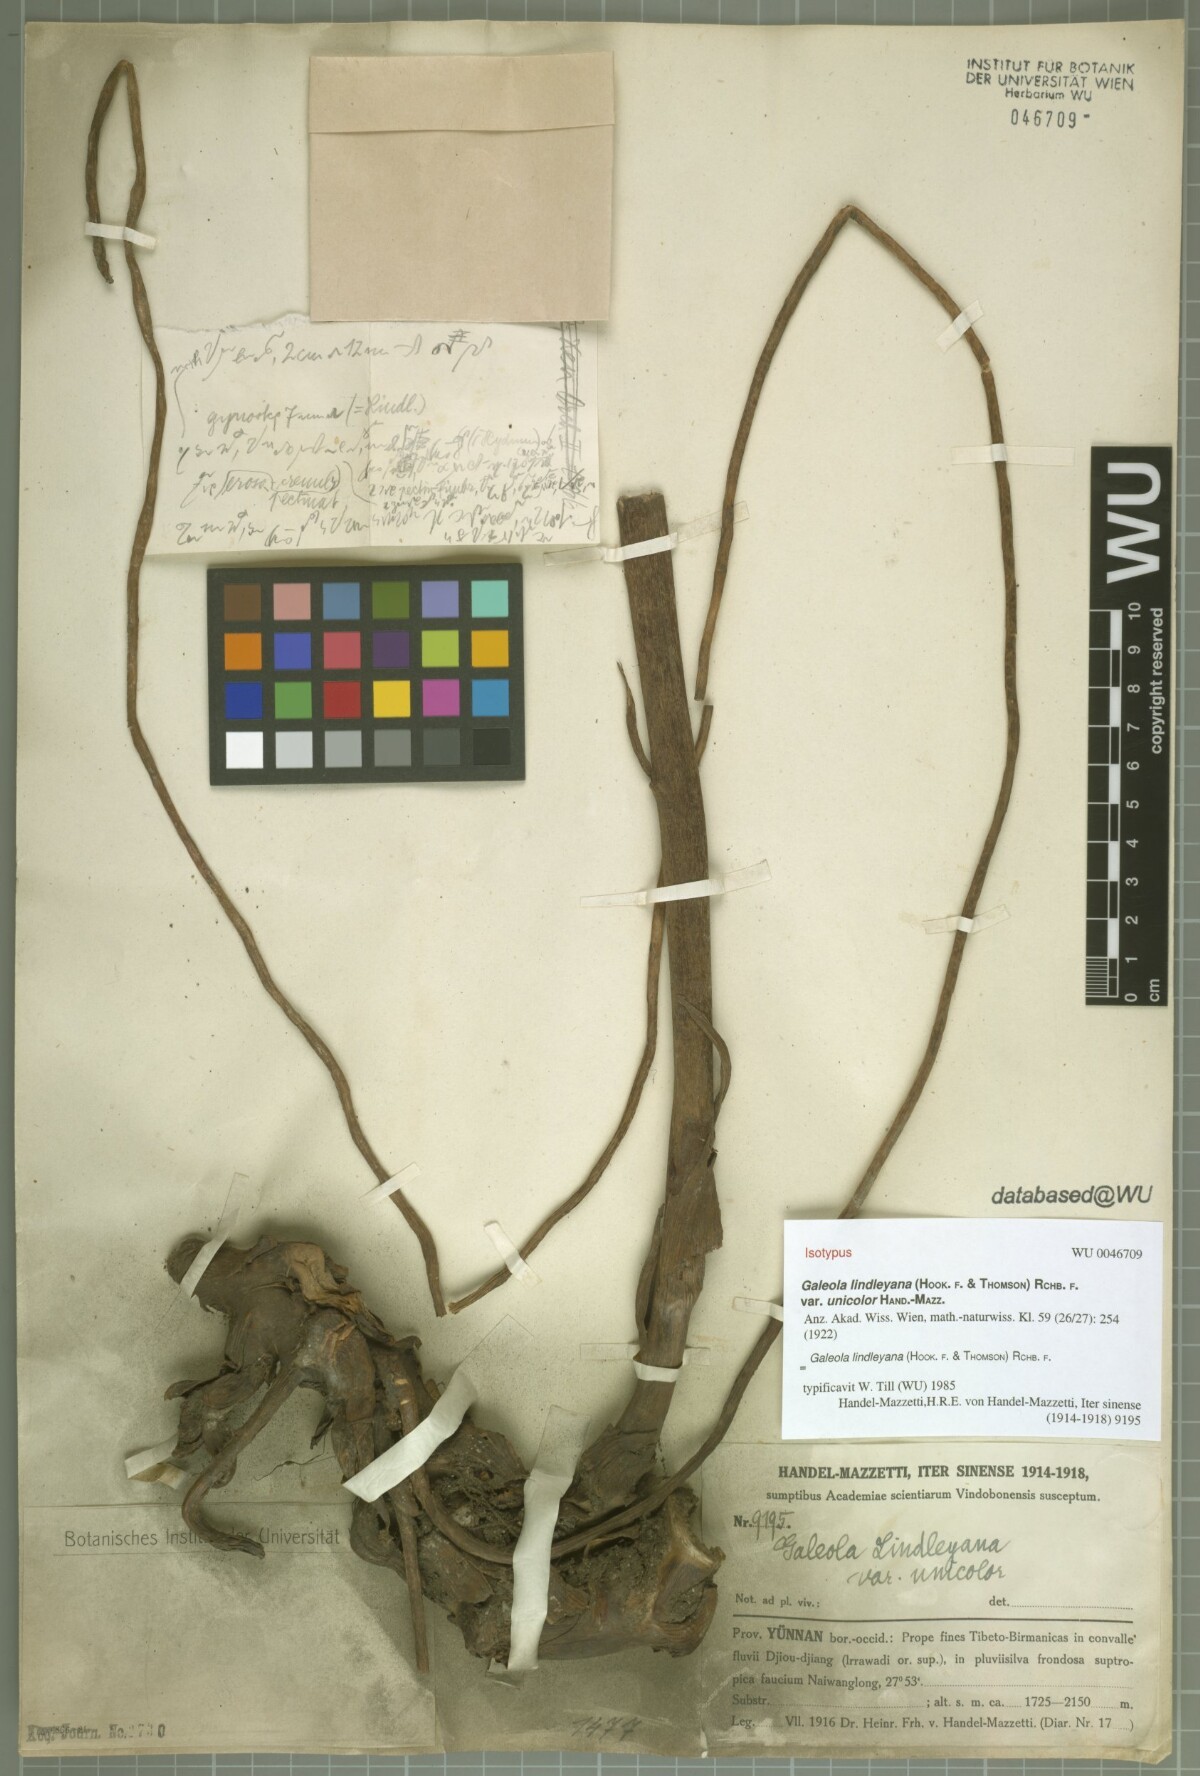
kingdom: Plantae
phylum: Tracheophyta
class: Liliopsida
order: Asparagales
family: Orchidaceae
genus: Cyrtosia
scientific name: Cyrtosia lindleyana
